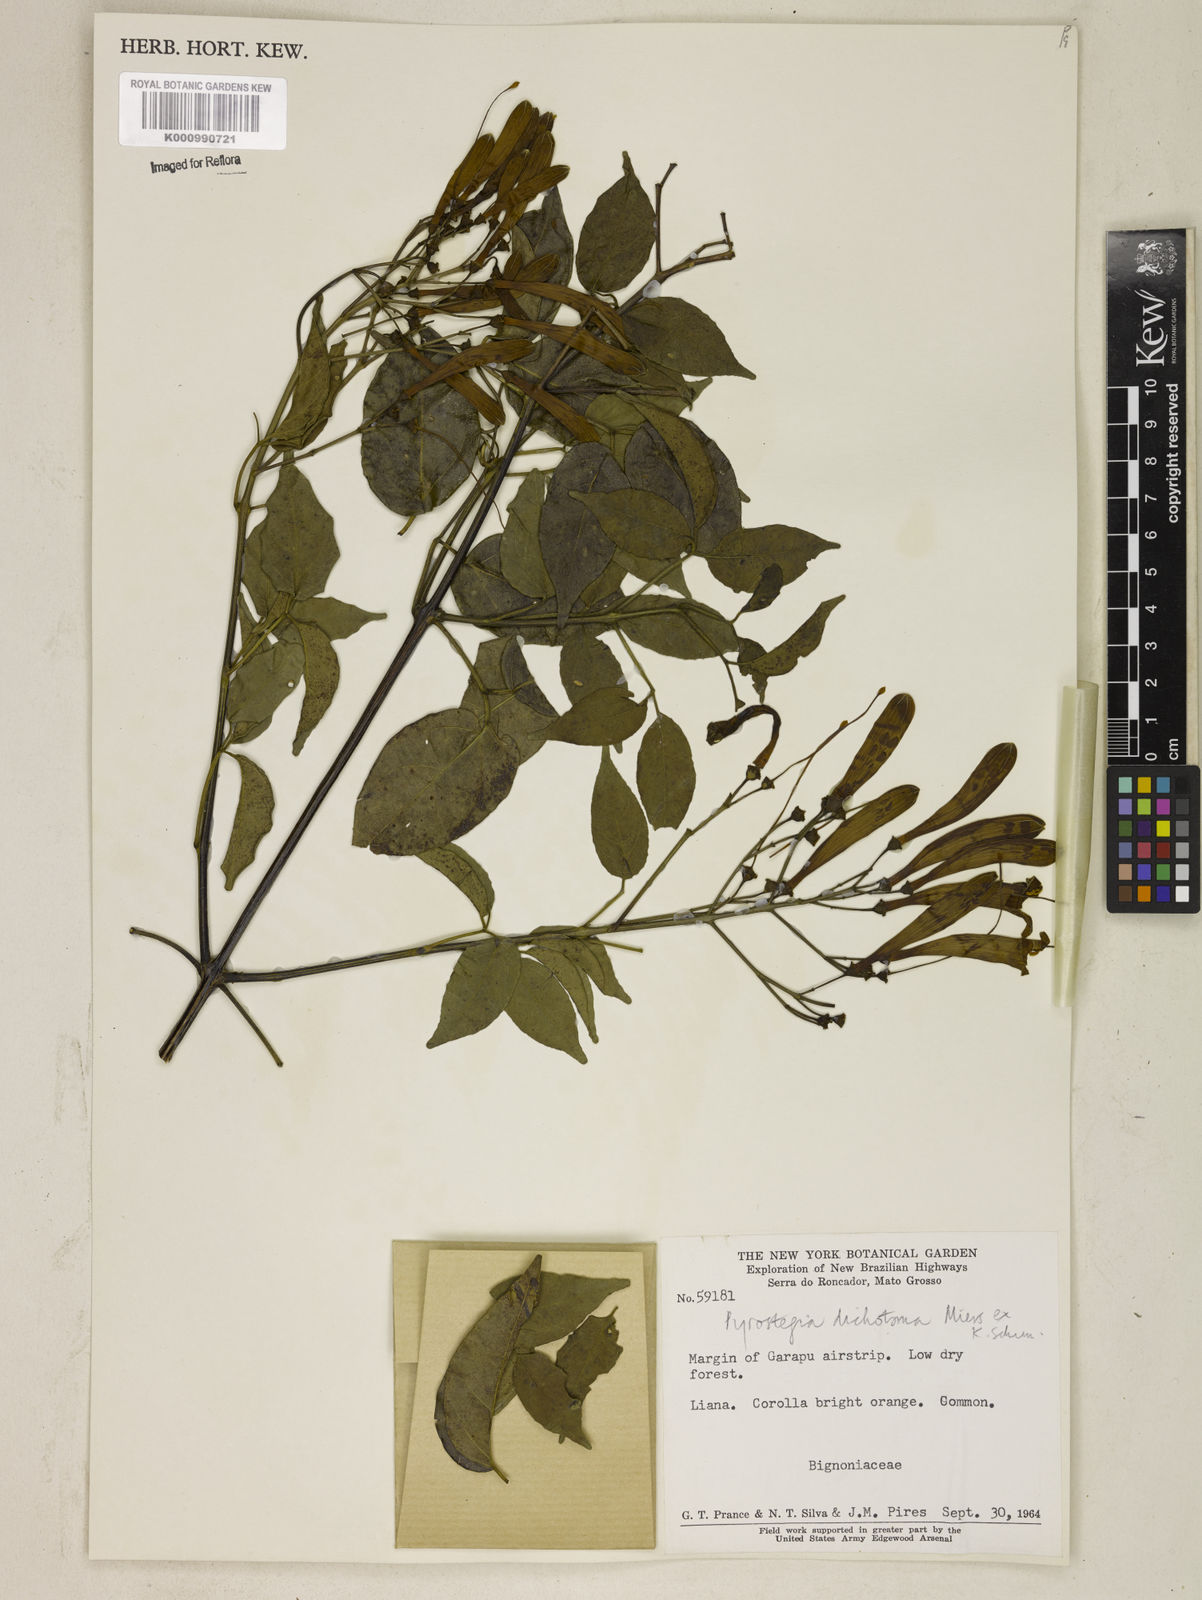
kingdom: Plantae
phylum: Tracheophyta
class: Magnoliopsida
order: Lamiales
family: Bignoniaceae
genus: Pyrostegia
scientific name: Pyrostegia
